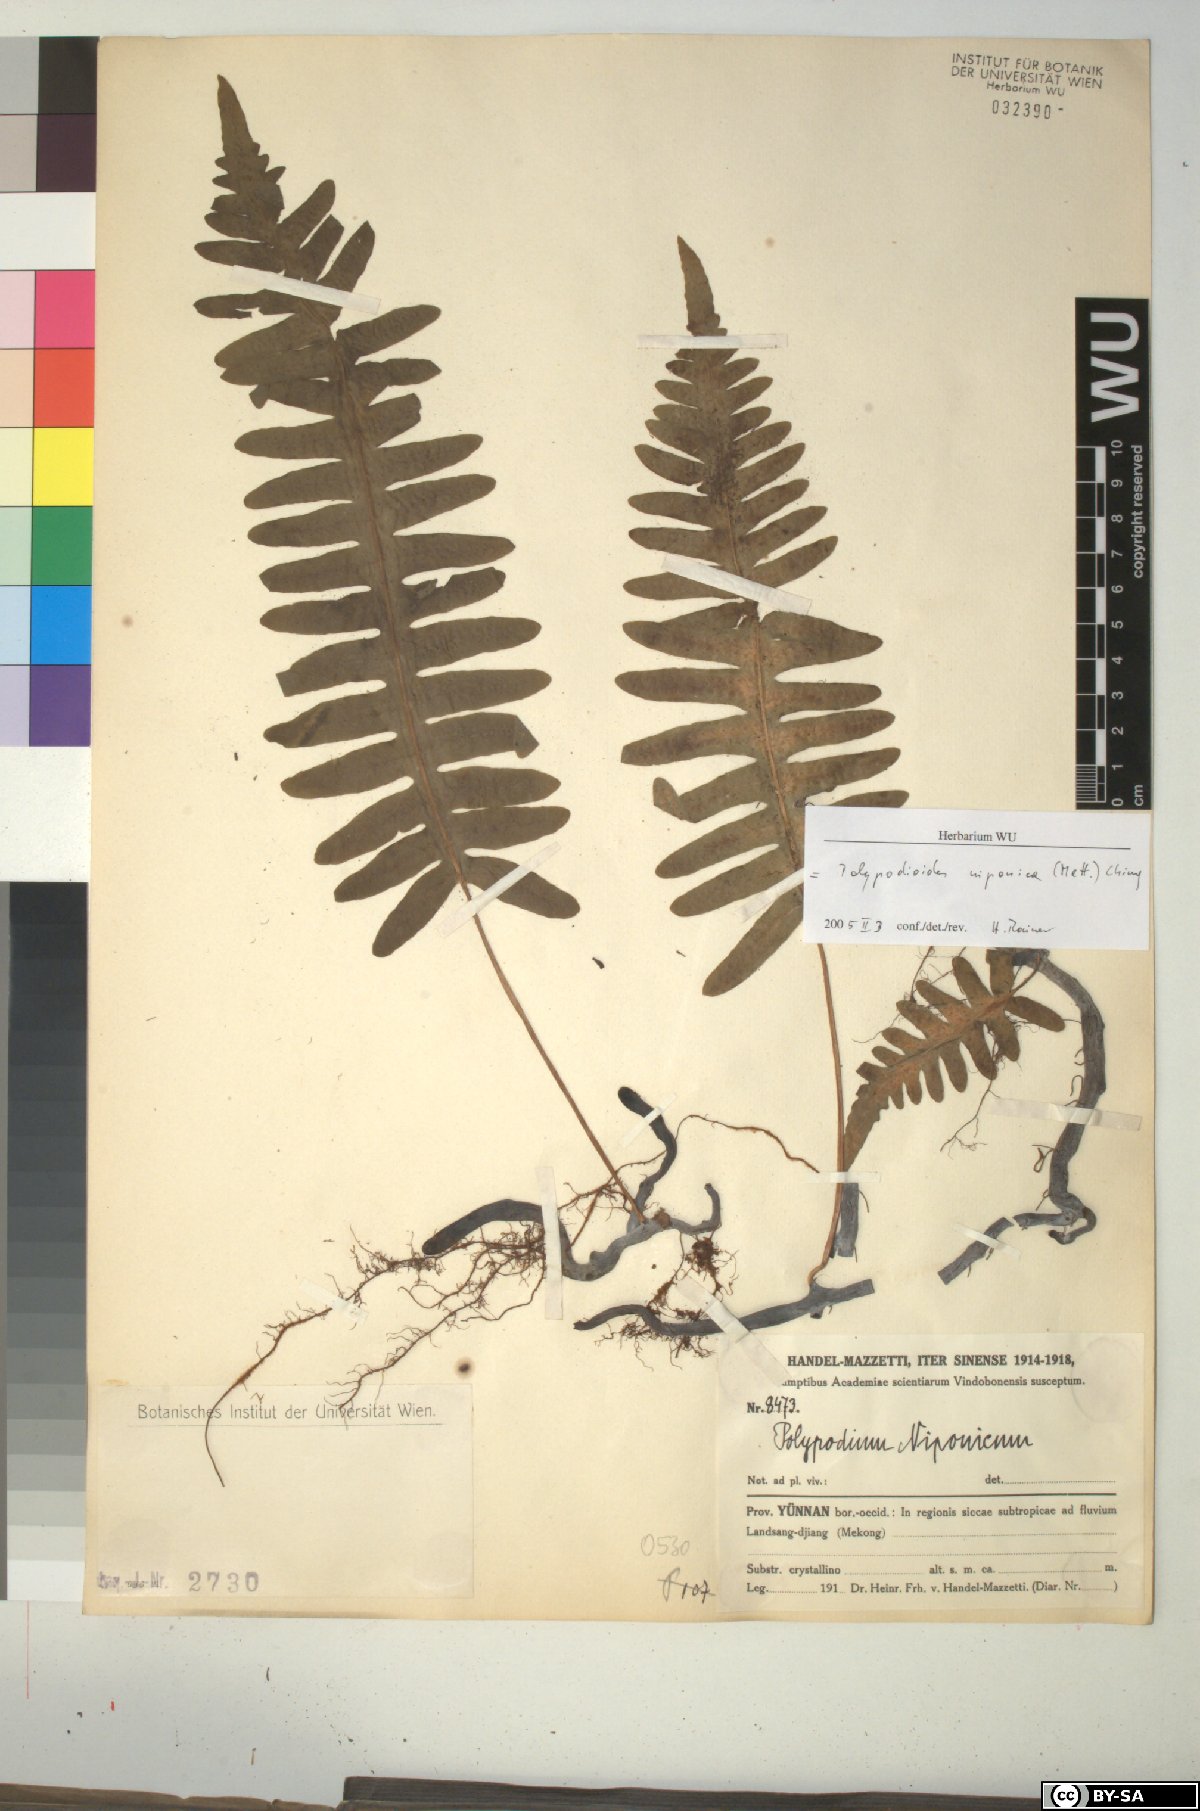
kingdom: Plantae
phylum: Tracheophyta
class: Polypodiopsida
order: Polypodiales
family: Polypodiaceae
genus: Goniophlebium
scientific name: Goniophlebium niponicum
